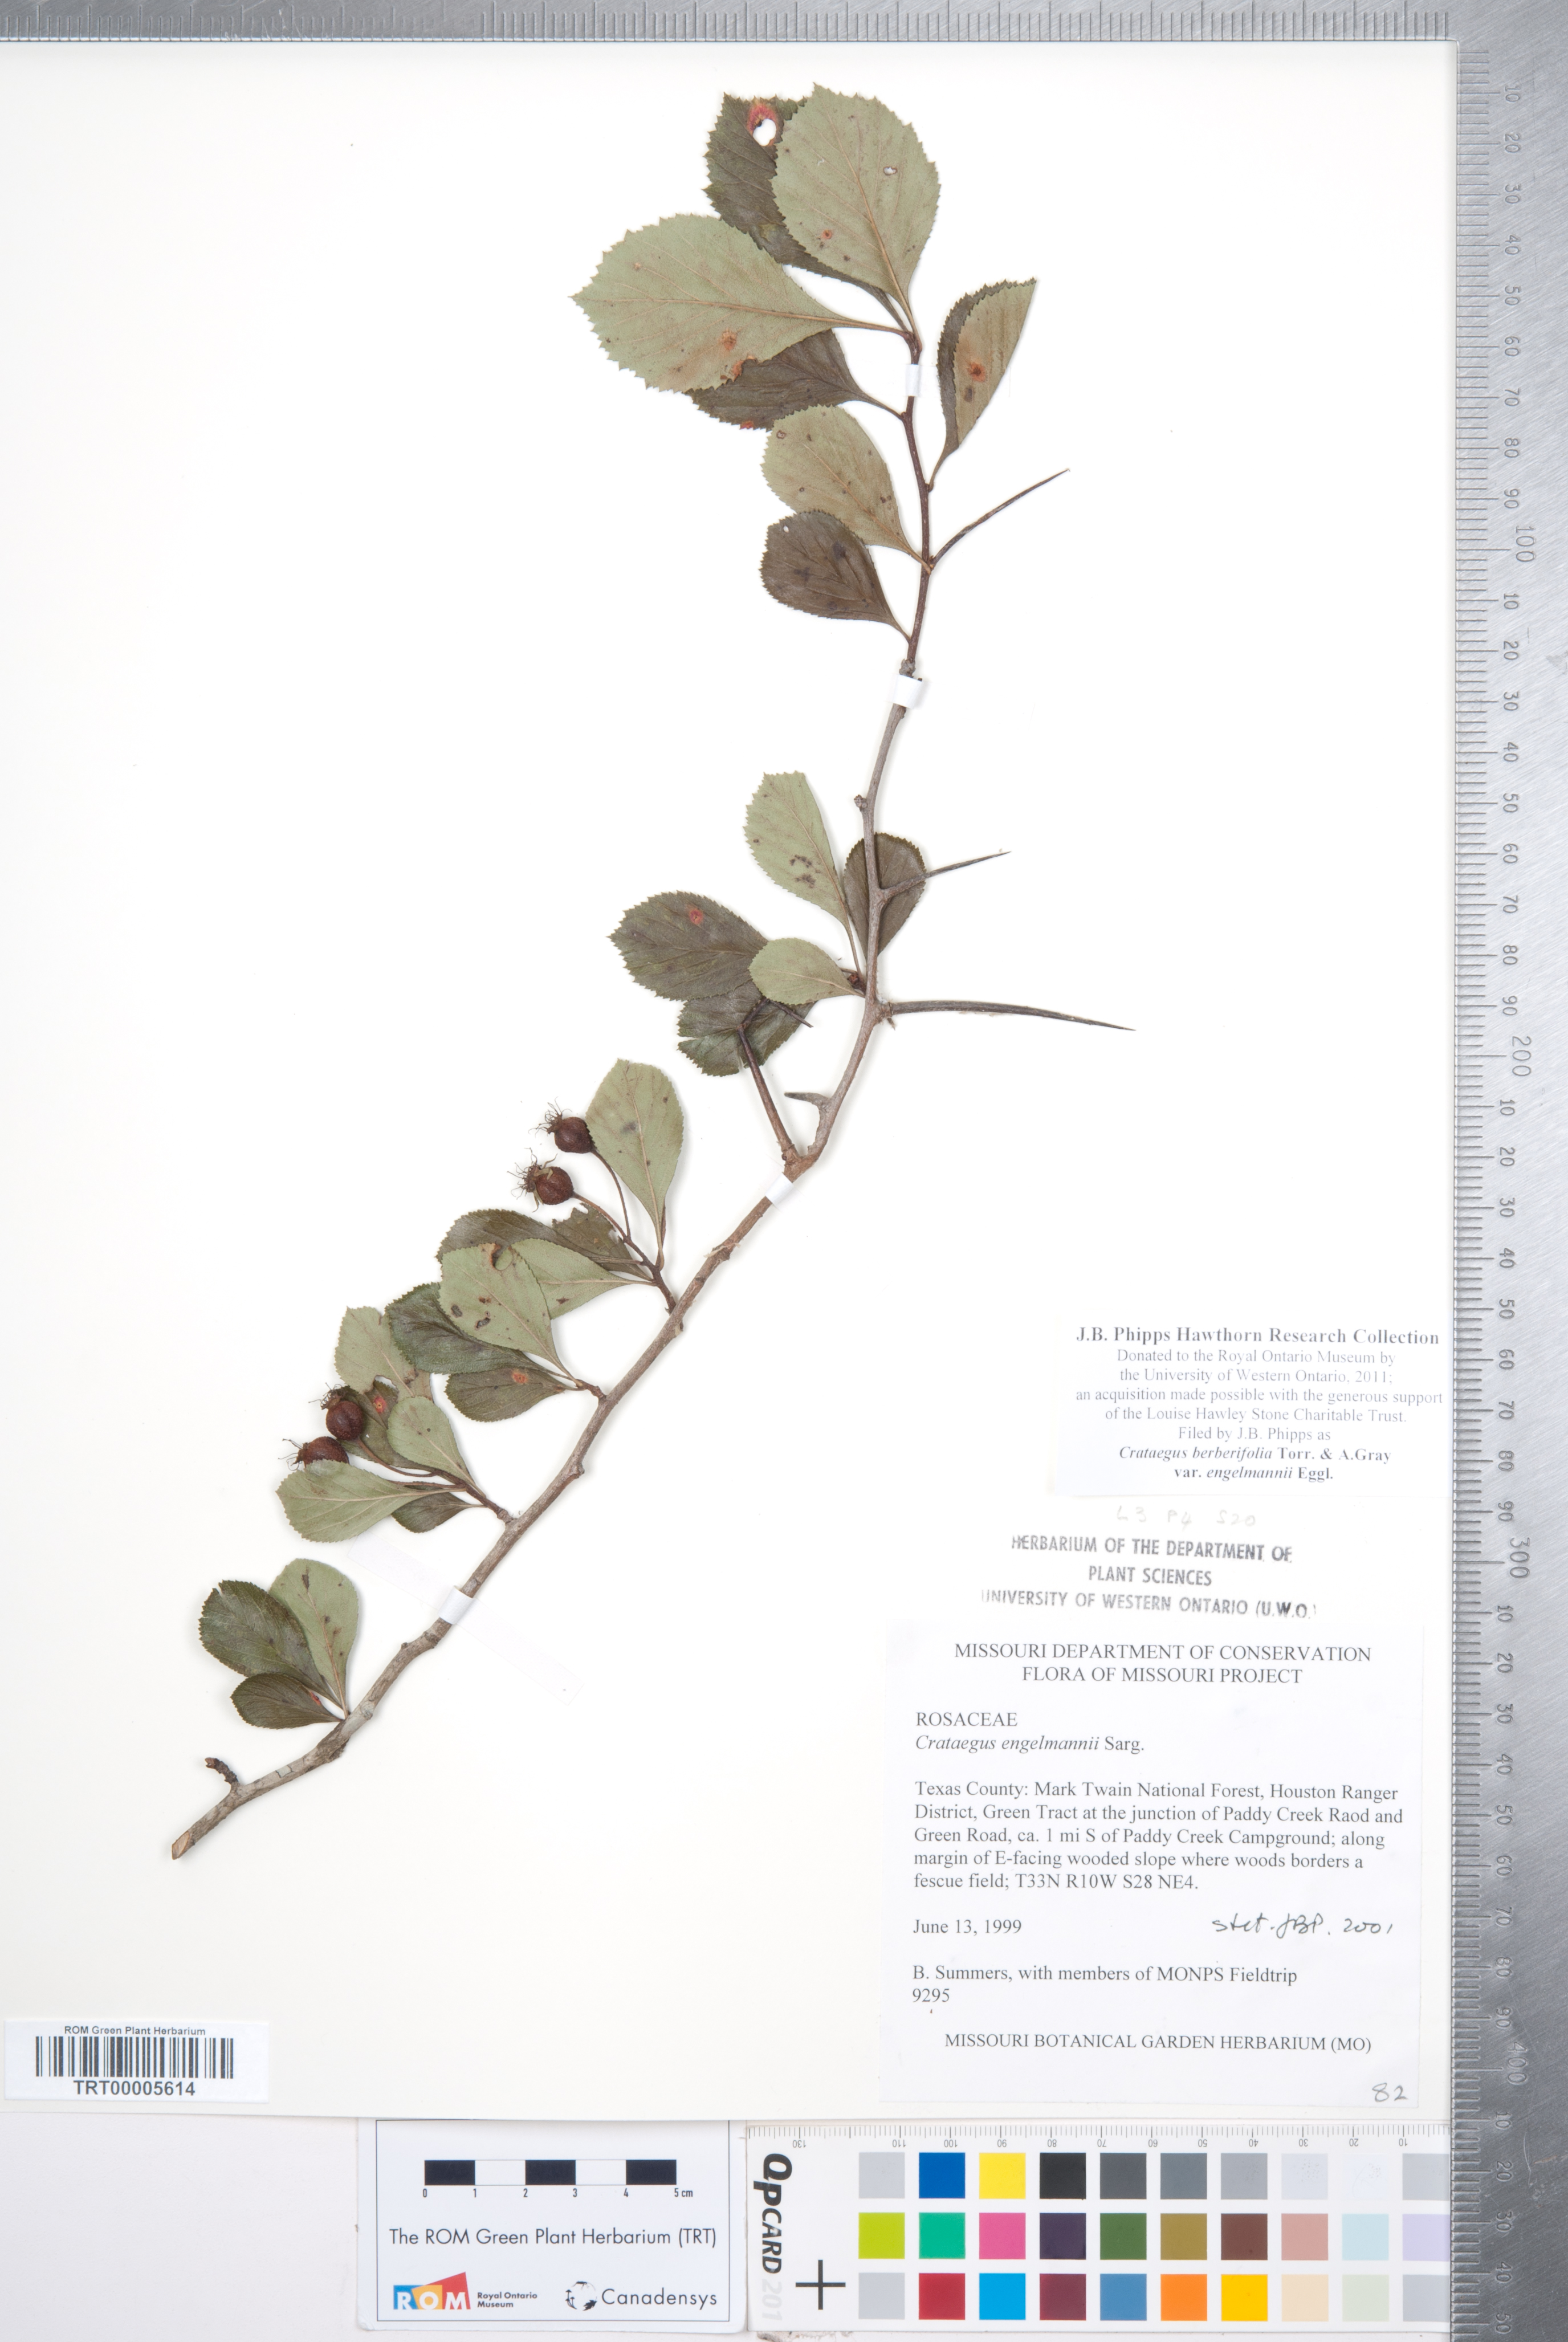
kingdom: Plantae
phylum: Tracheophyta
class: Magnoliopsida
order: Rosales
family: Rosaceae
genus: Crataegus
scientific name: Crataegus berberifolia
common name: Barberry hawthorn
